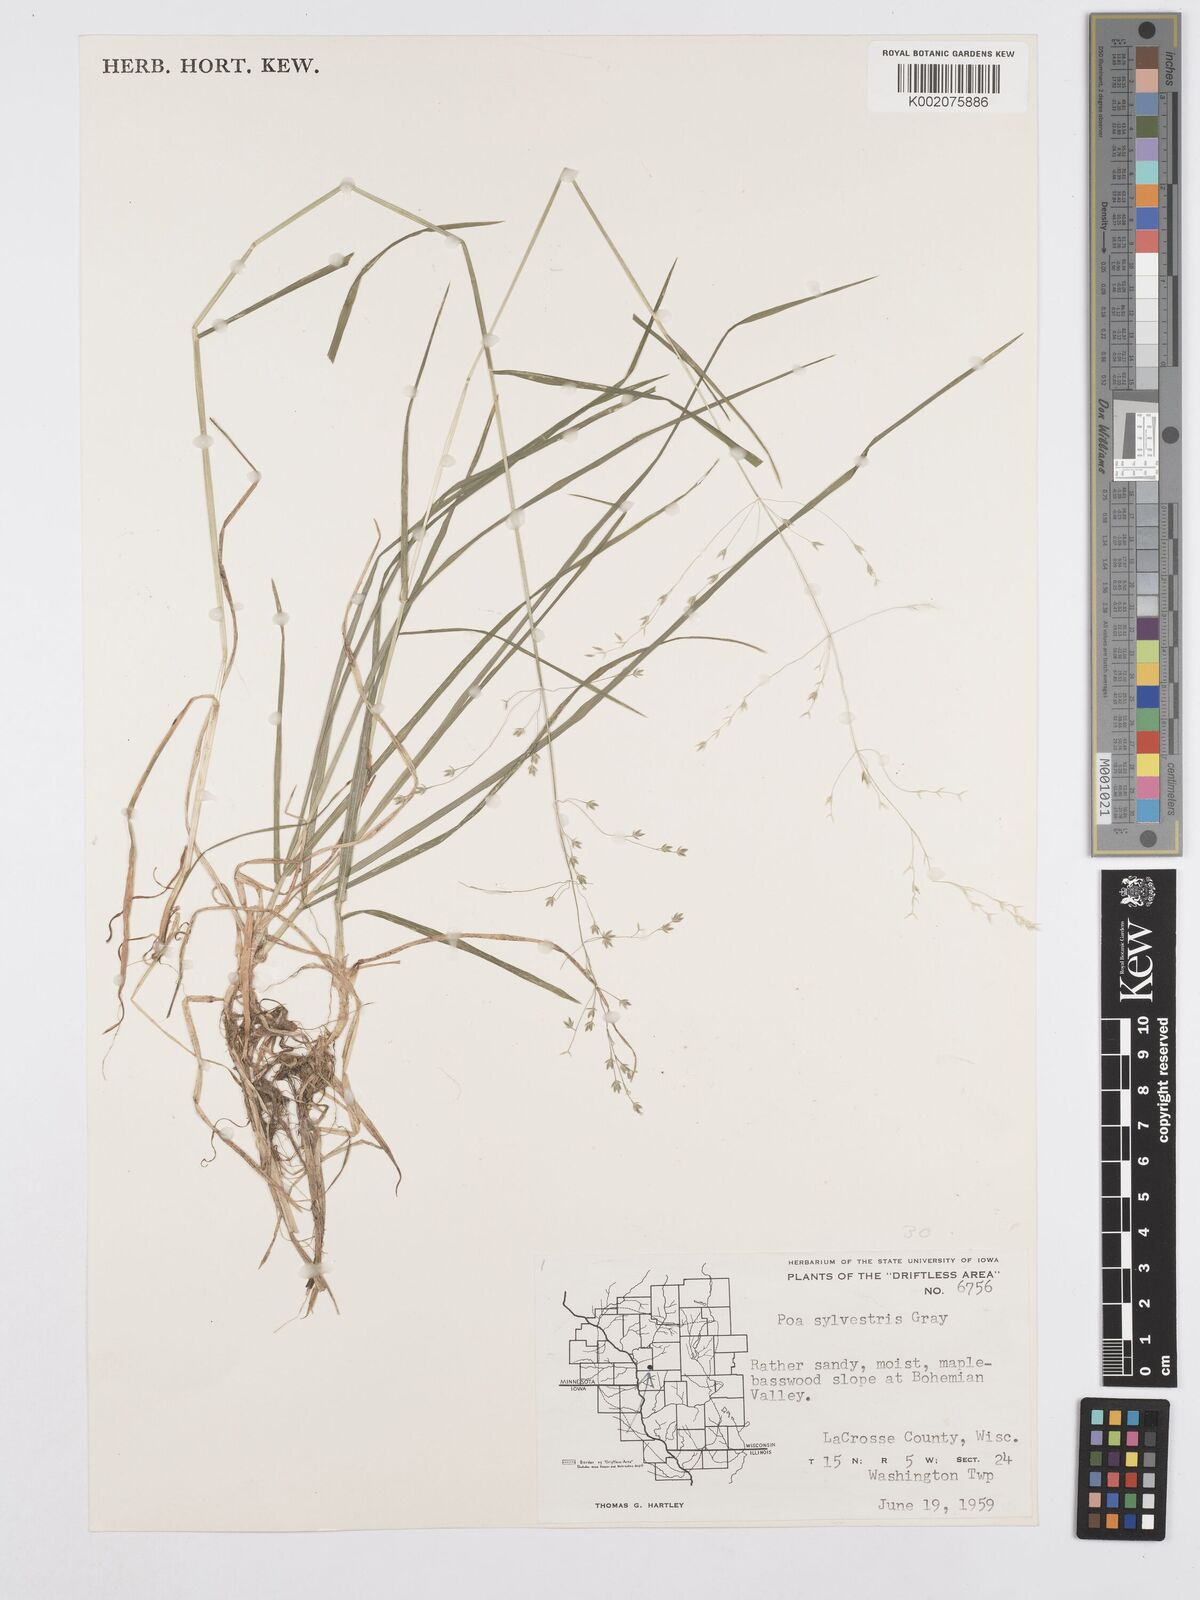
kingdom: Plantae
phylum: Tracheophyta
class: Liliopsida
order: Poales
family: Poaceae
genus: Poa
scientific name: Poa sylvestris
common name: North american woodland bluegrass
